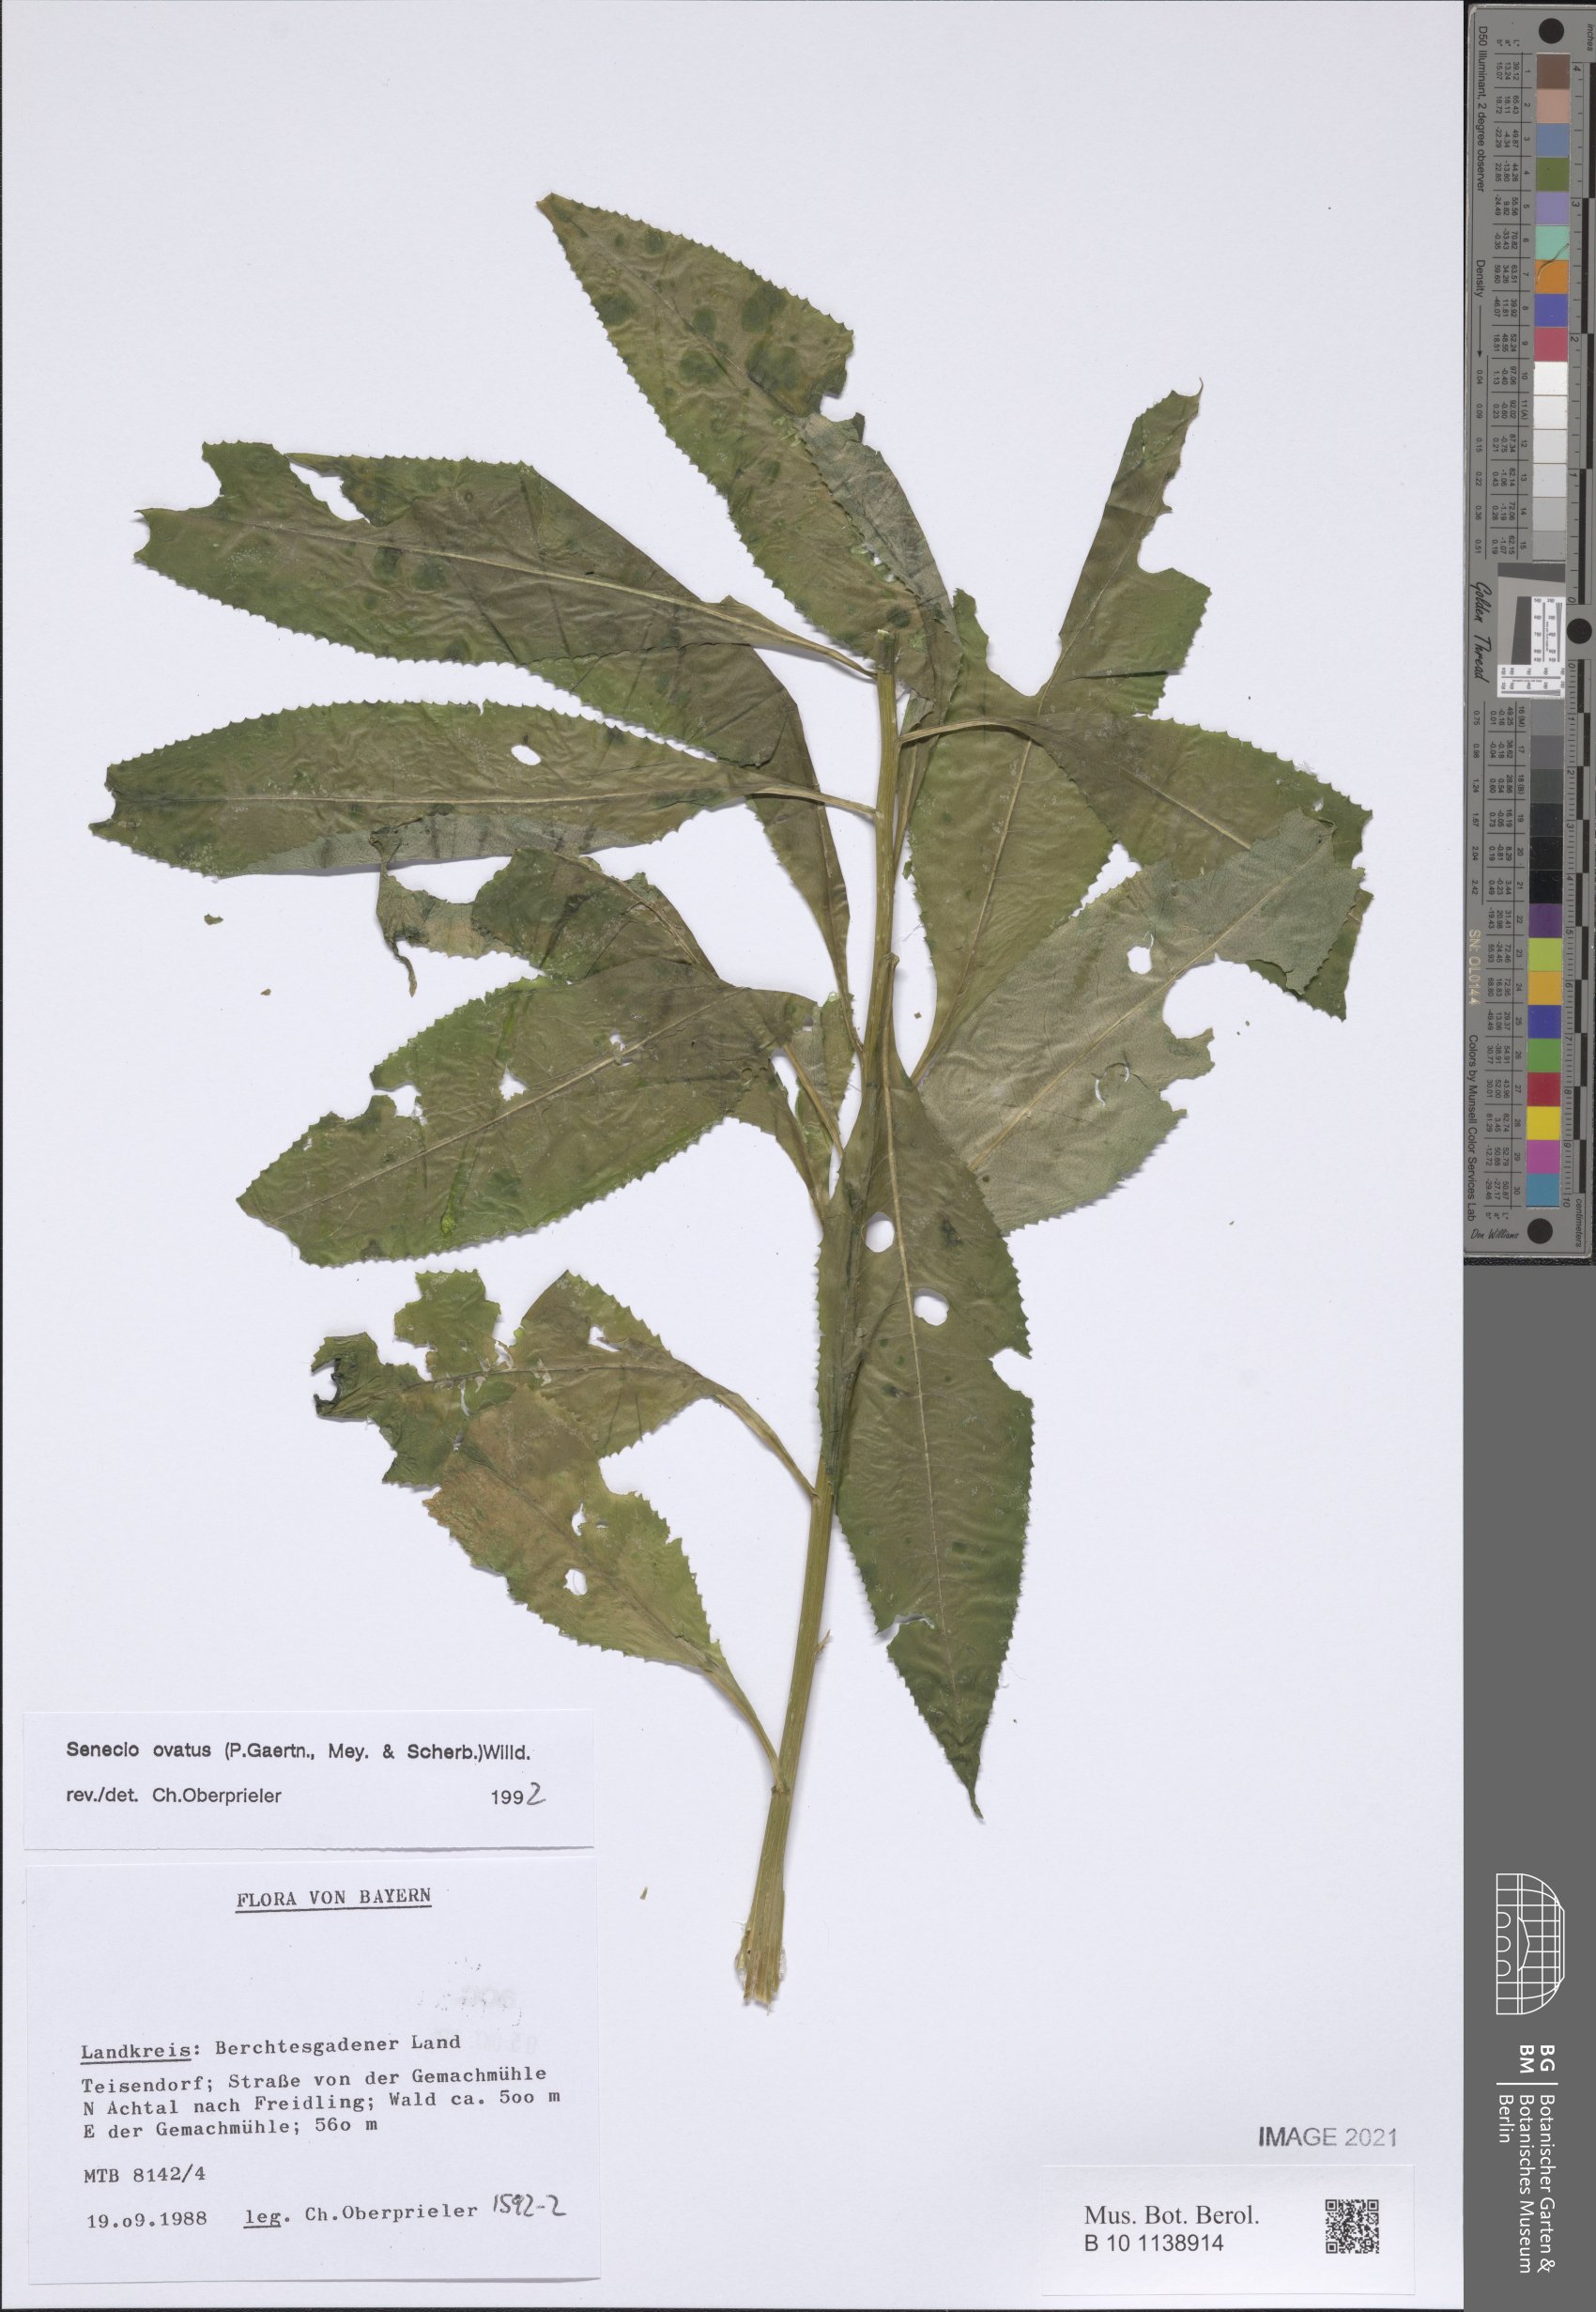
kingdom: Plantae
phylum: Tracheophyta
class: Magnoliopsida
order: Asterales
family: Asteraceae
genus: Senecio
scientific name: Senecio ovatus
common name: Wood ragwort
